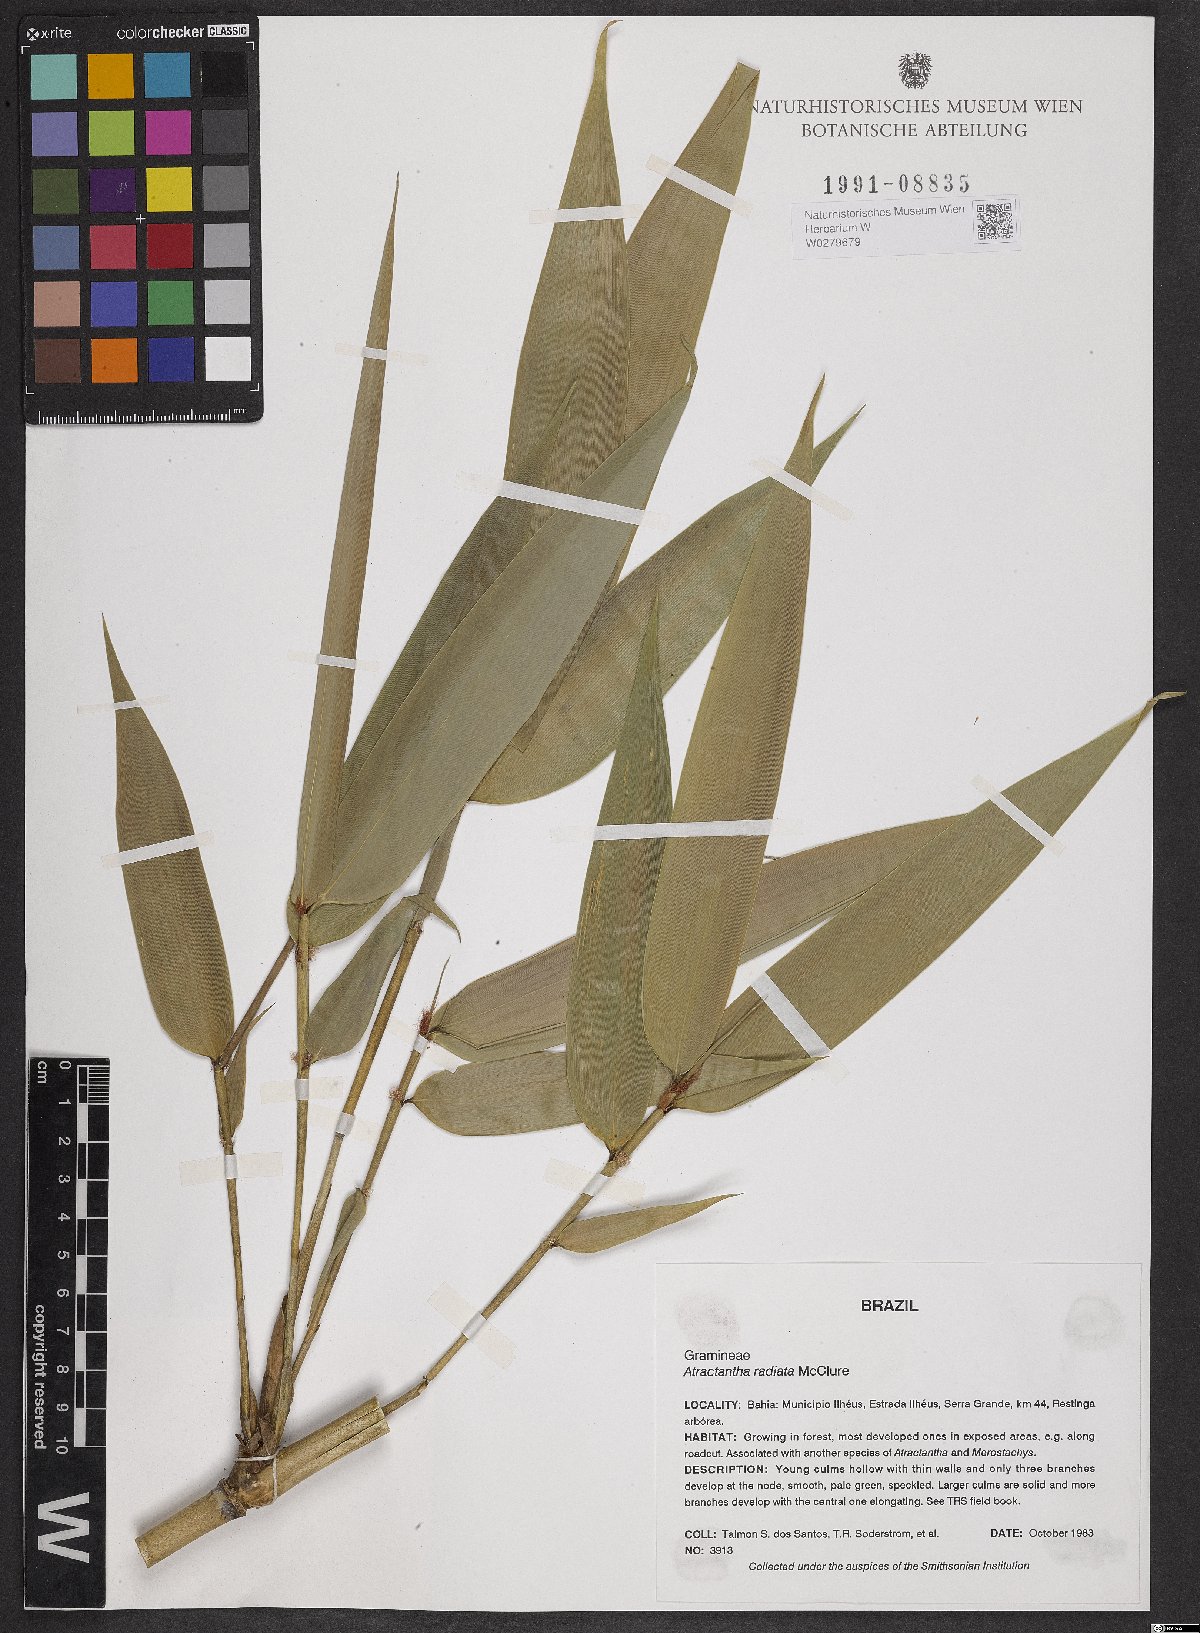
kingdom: Plantae
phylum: Tracheophyta
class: Liliopsida
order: Poales
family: Poaceae
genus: Atractantha
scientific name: Atractantha radiata
